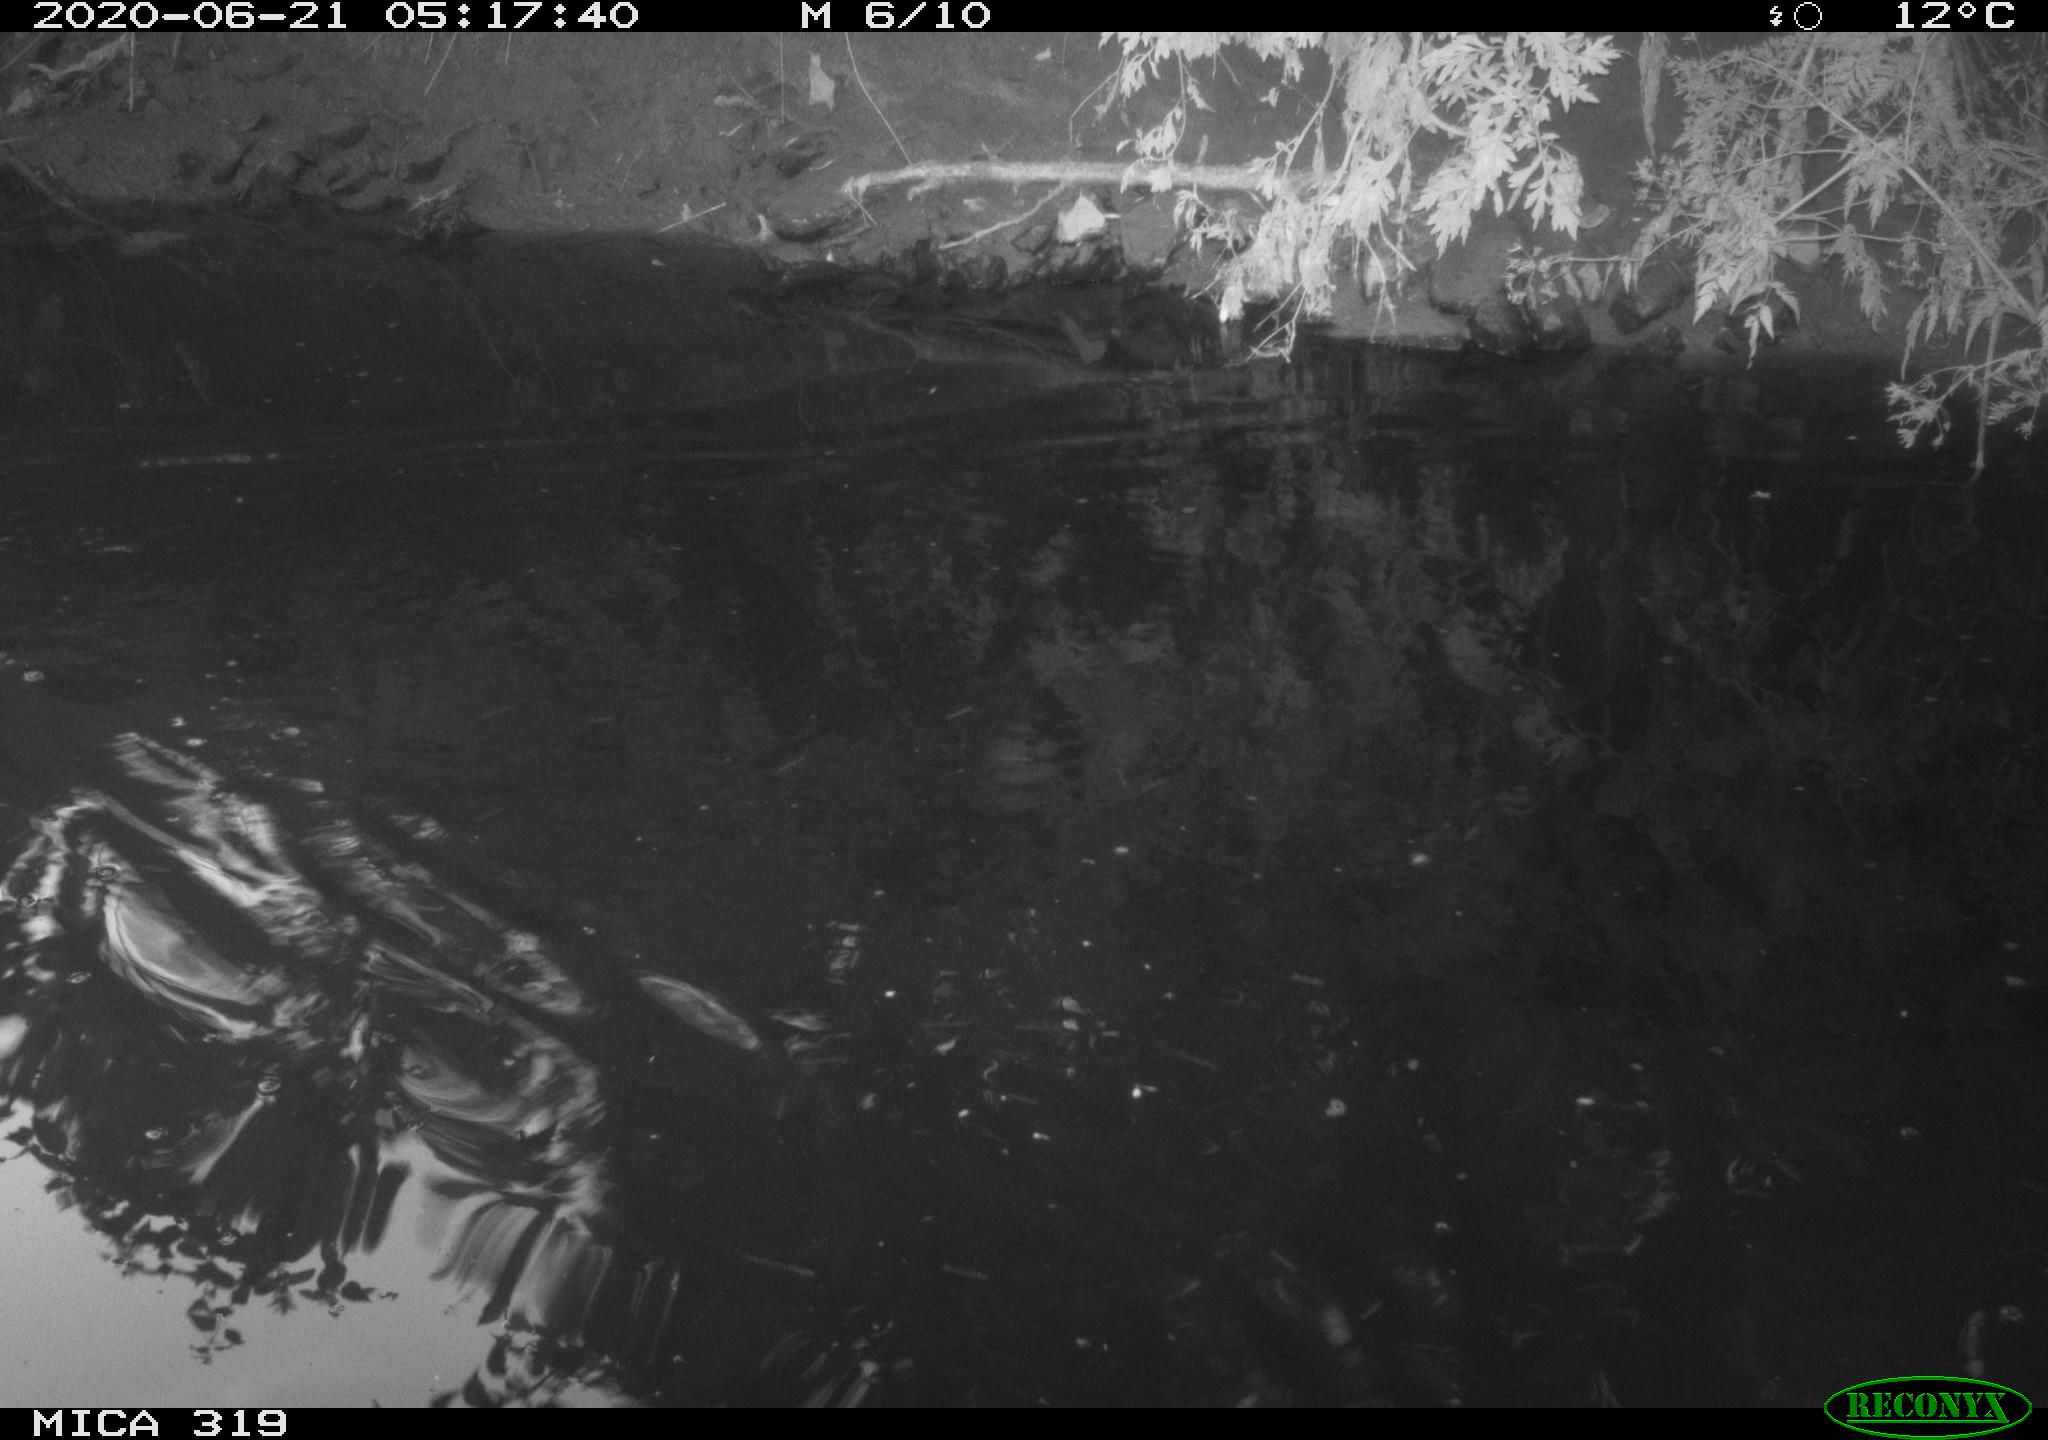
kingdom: Animalia
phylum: Chordata
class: Aves
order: Anseriformes
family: Anatidae
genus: Anas
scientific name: Anas platyrhynchos
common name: Mallard
